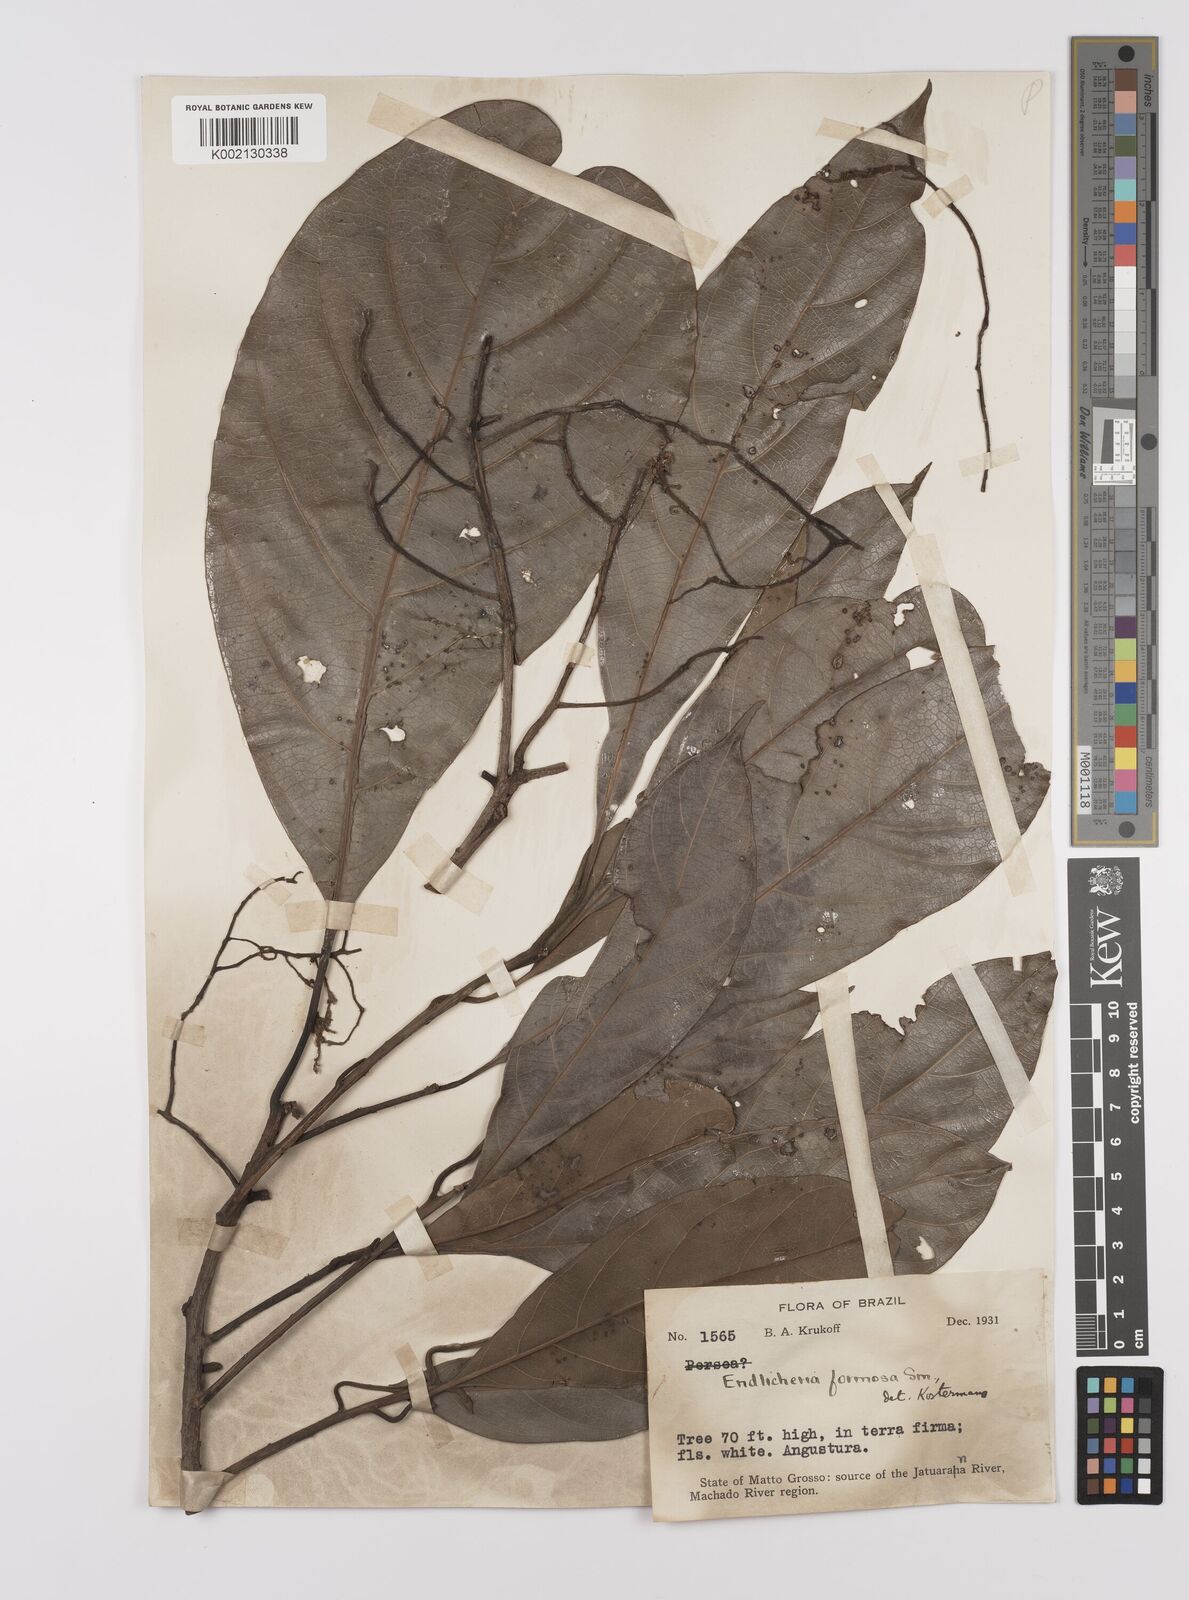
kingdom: Plantae
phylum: Tracheophyta
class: Magnoliopsida
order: Laurales
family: Lauraceae
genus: Endlicheria
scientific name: Endlicheria formosa
